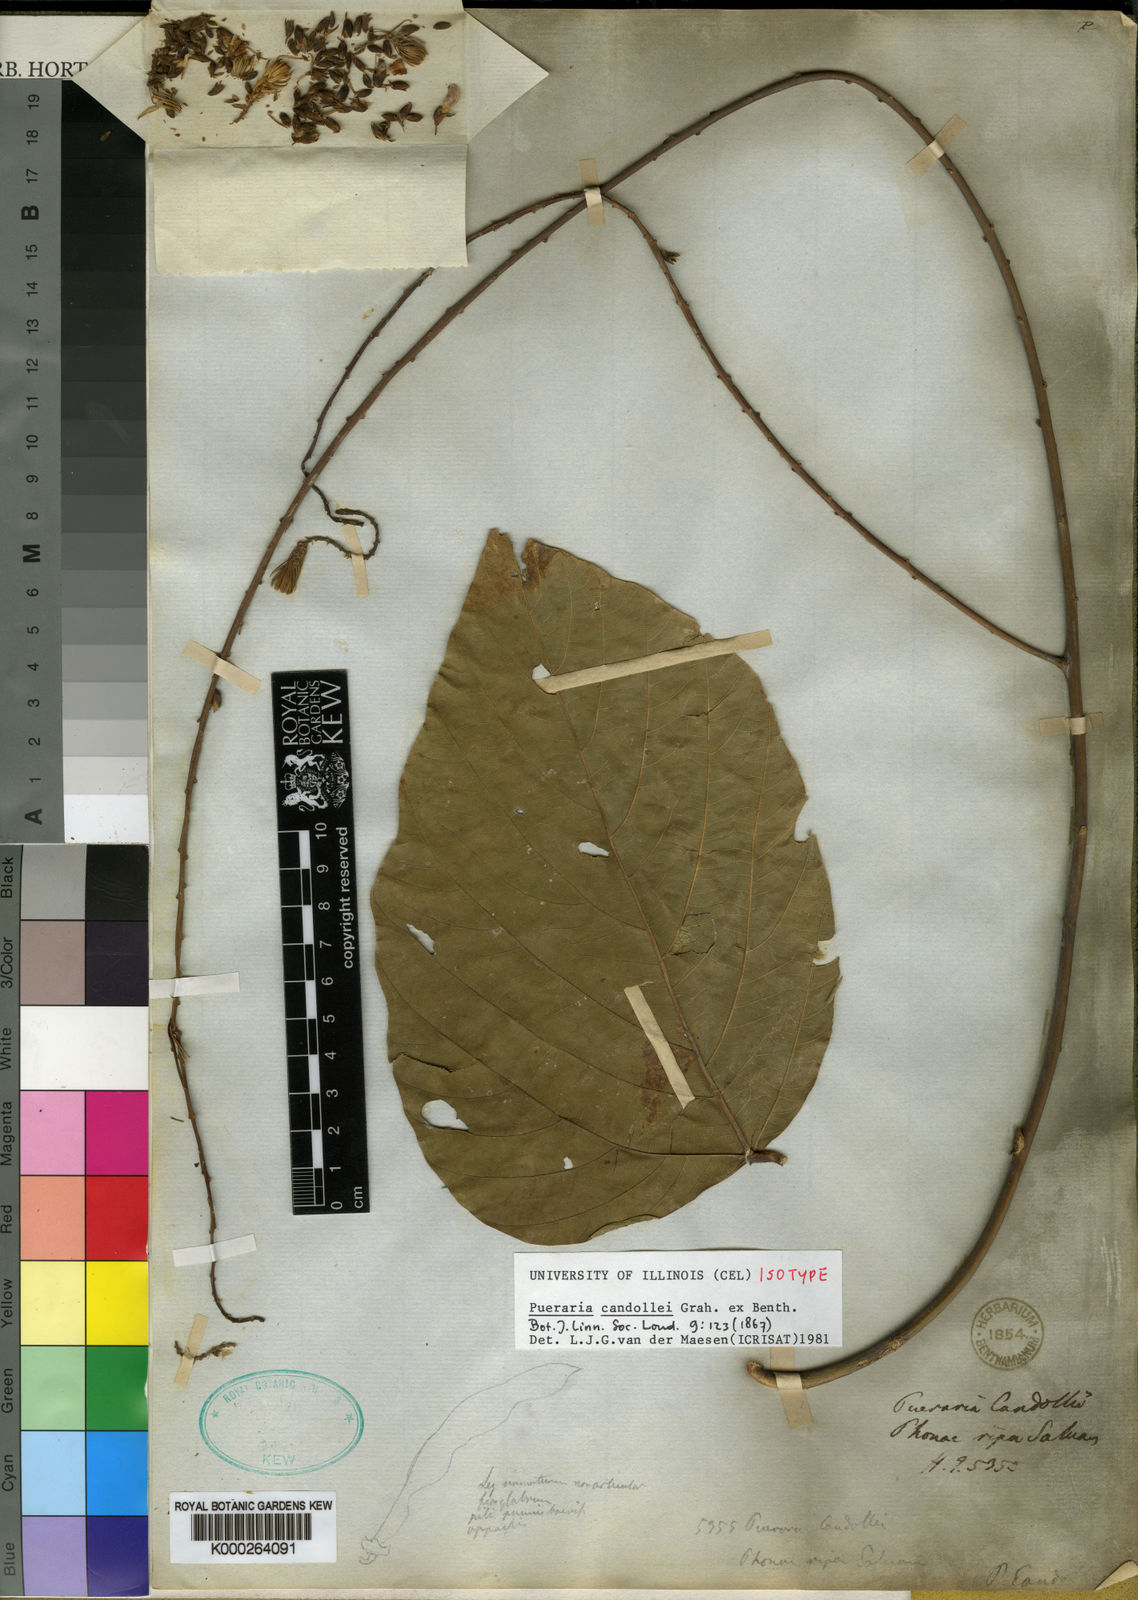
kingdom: Plantae
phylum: Tracheophyta
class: Magnoliopsida
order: Fabales
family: Fabaceae
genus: Pueraria
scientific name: Pueraria candollei
